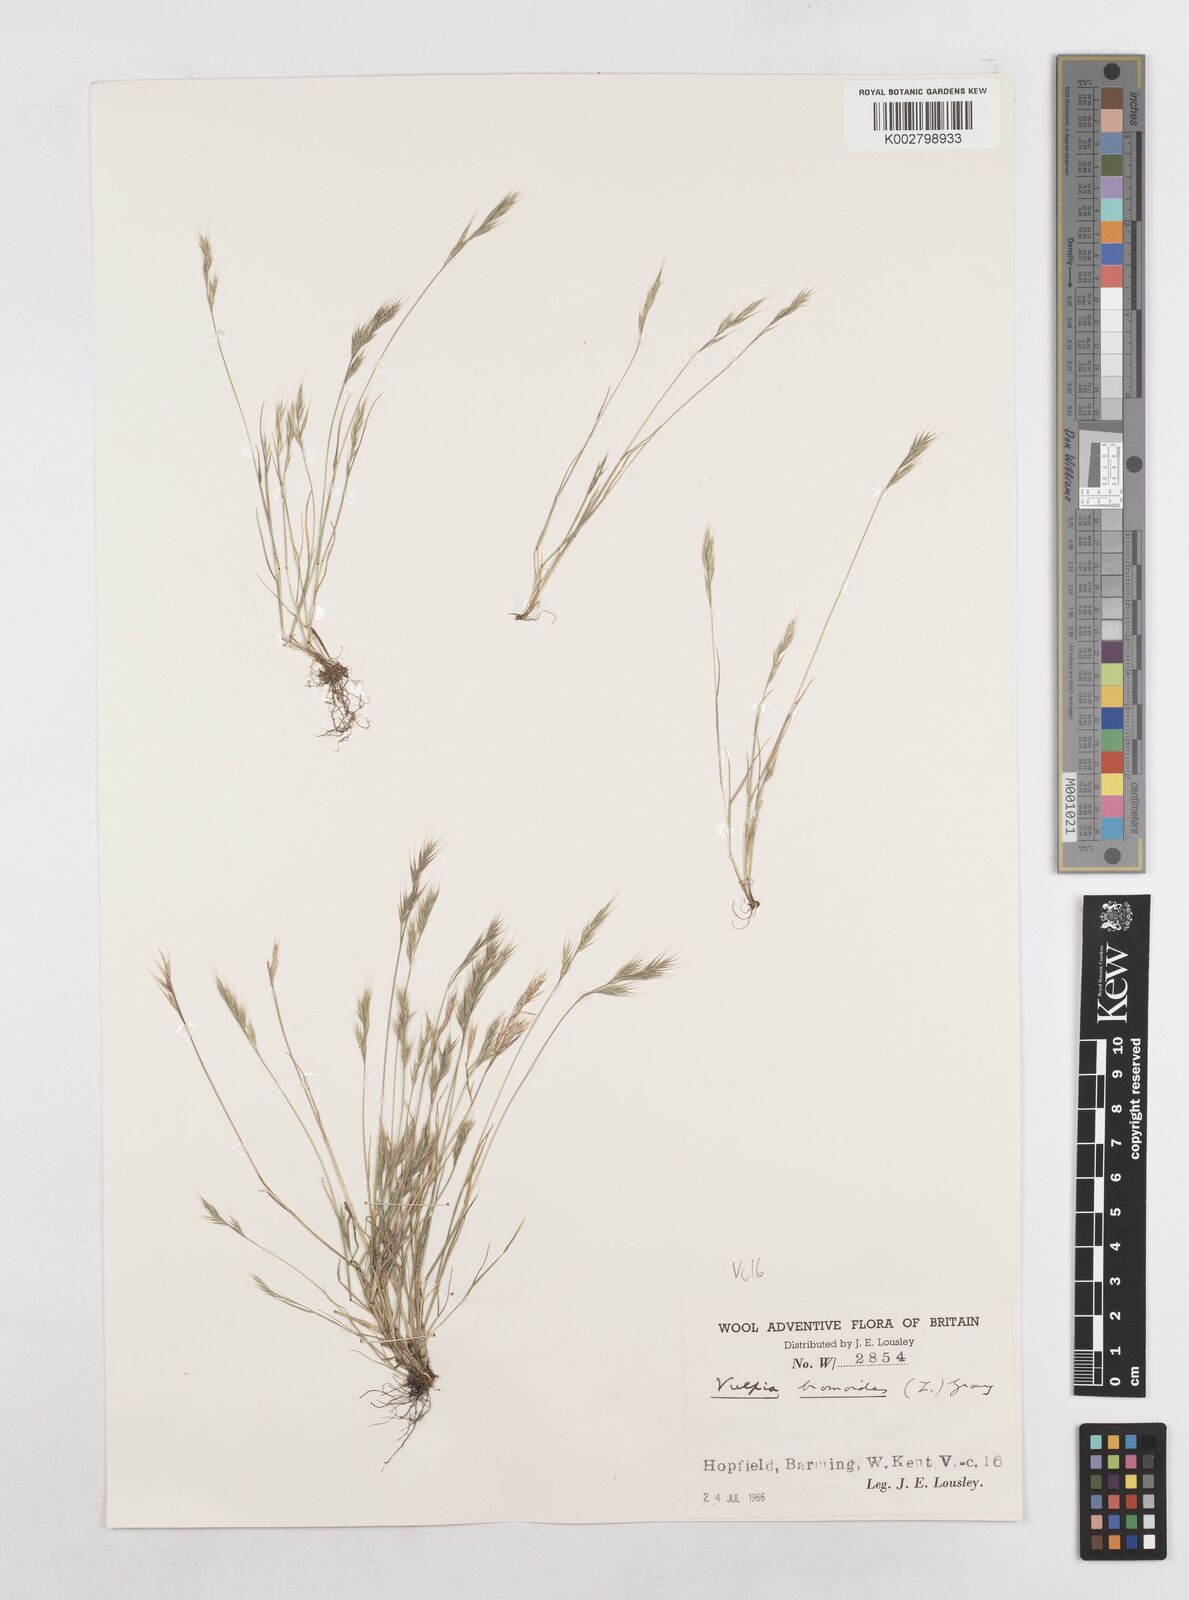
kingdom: Plantae
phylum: Tracheophyta
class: Liliopsida
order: Poales
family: Poaceae
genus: Festuca
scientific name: Festuca bromoides
